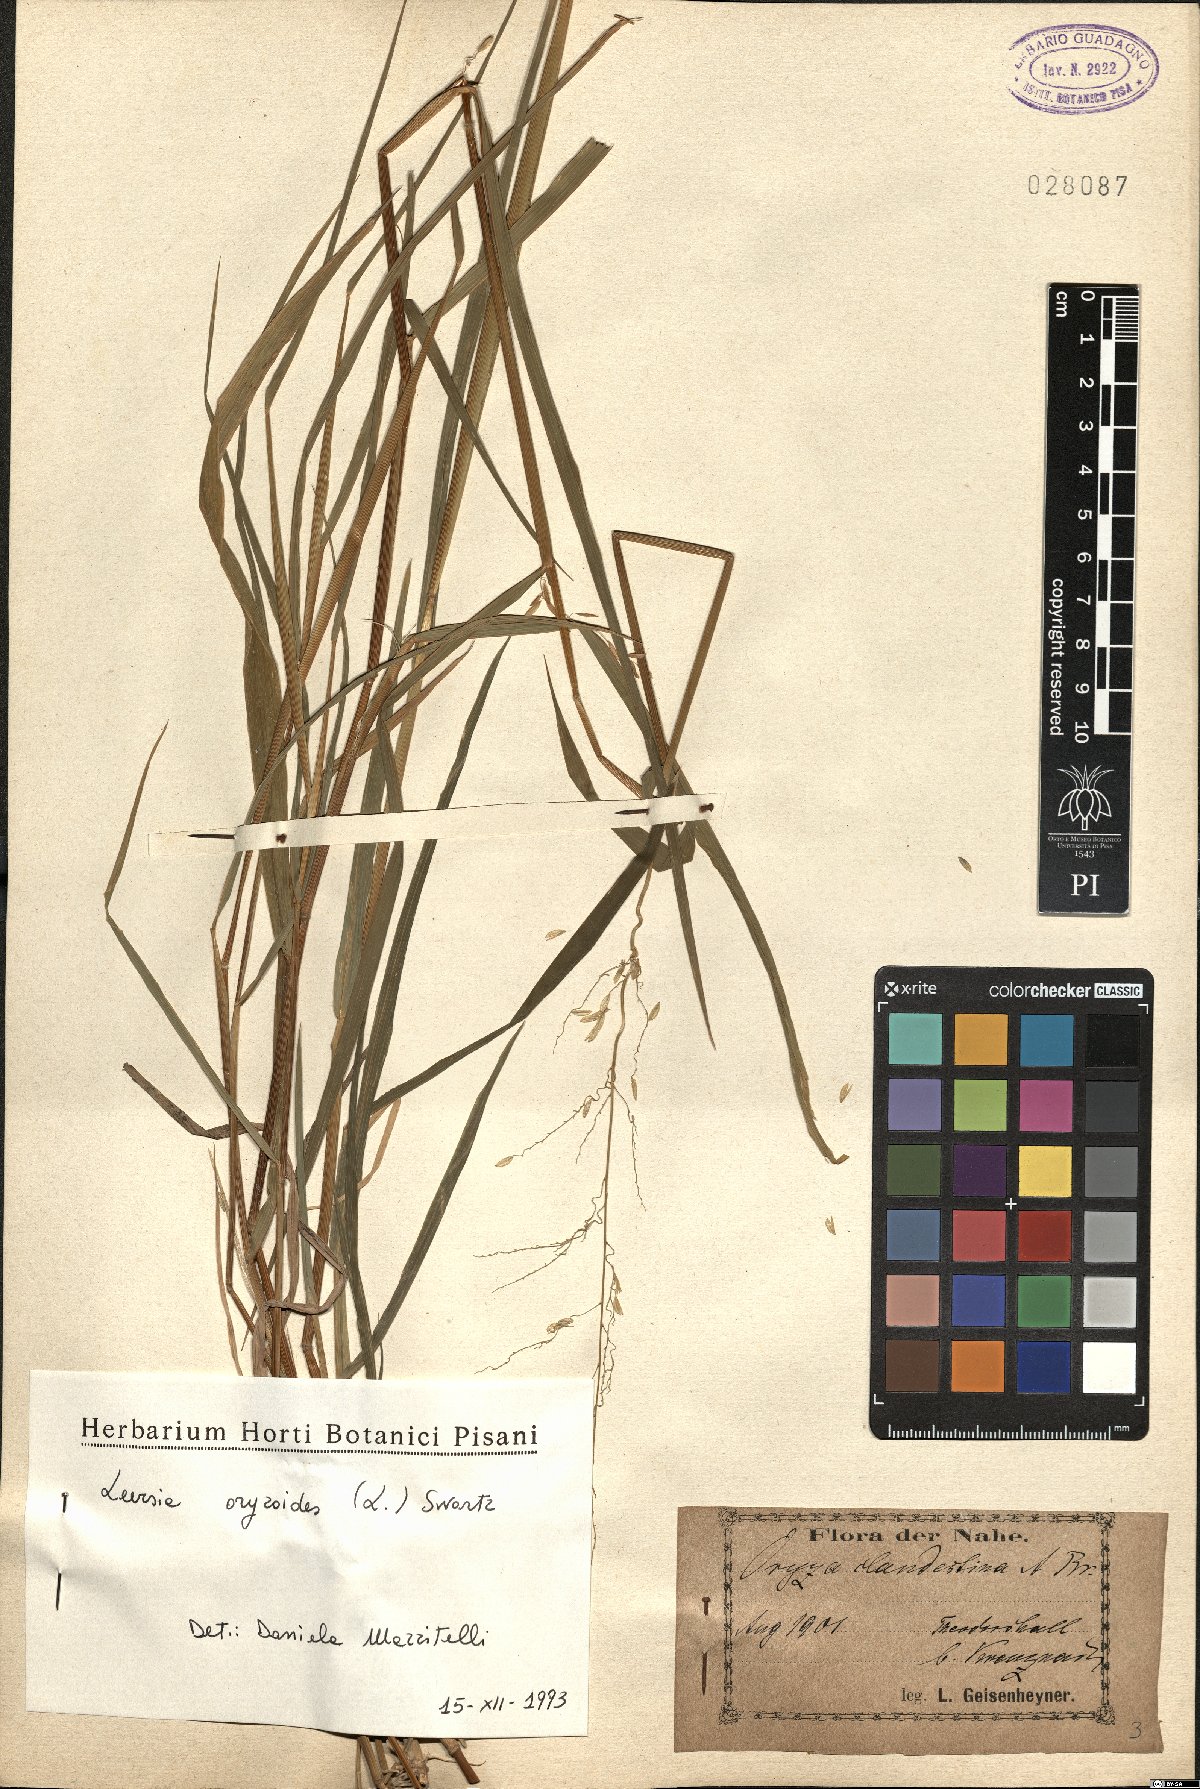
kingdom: Plantae
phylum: Tracheophyta
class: Liliopsida
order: Poales
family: Poaceae
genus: Leersia
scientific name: Leersia oryzoides
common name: Cut-grass
